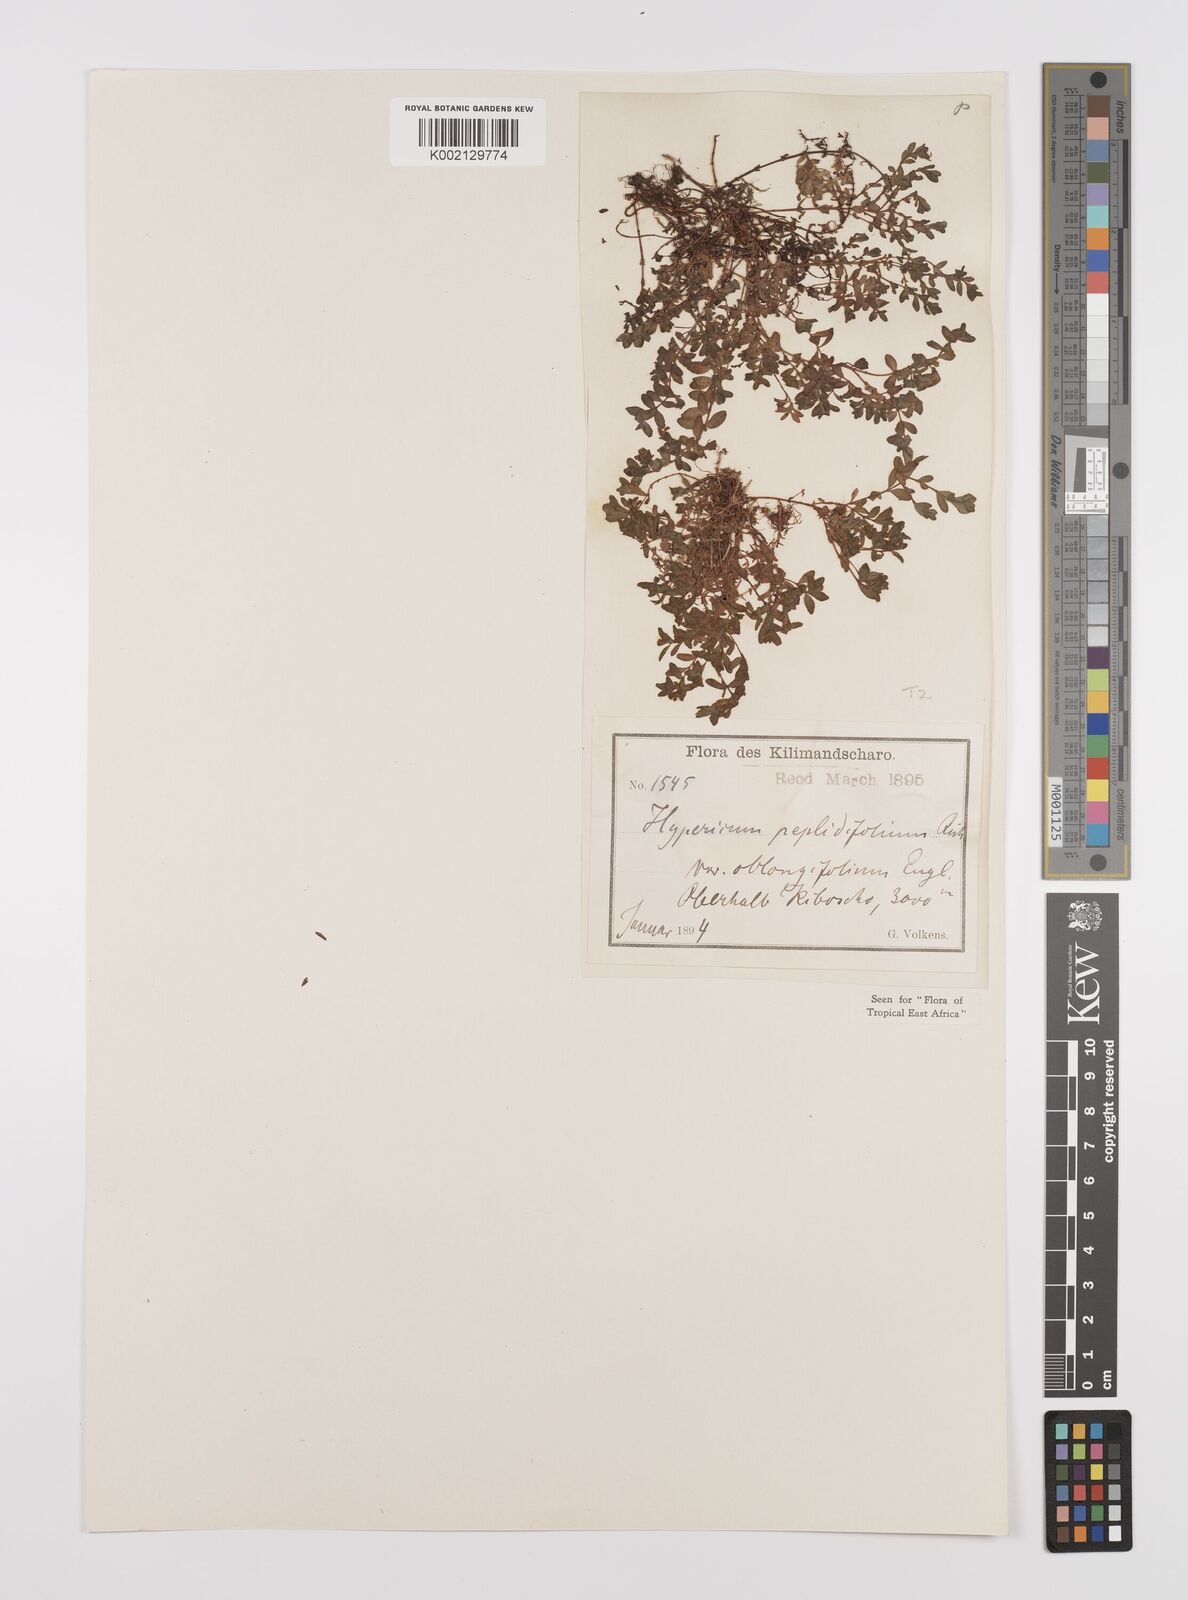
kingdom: Plantae
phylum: Tracheophyta
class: Magnoliopsida
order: Malpighiales
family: Hypericaceae
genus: Hypericum
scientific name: Hypericum peplidifolium
